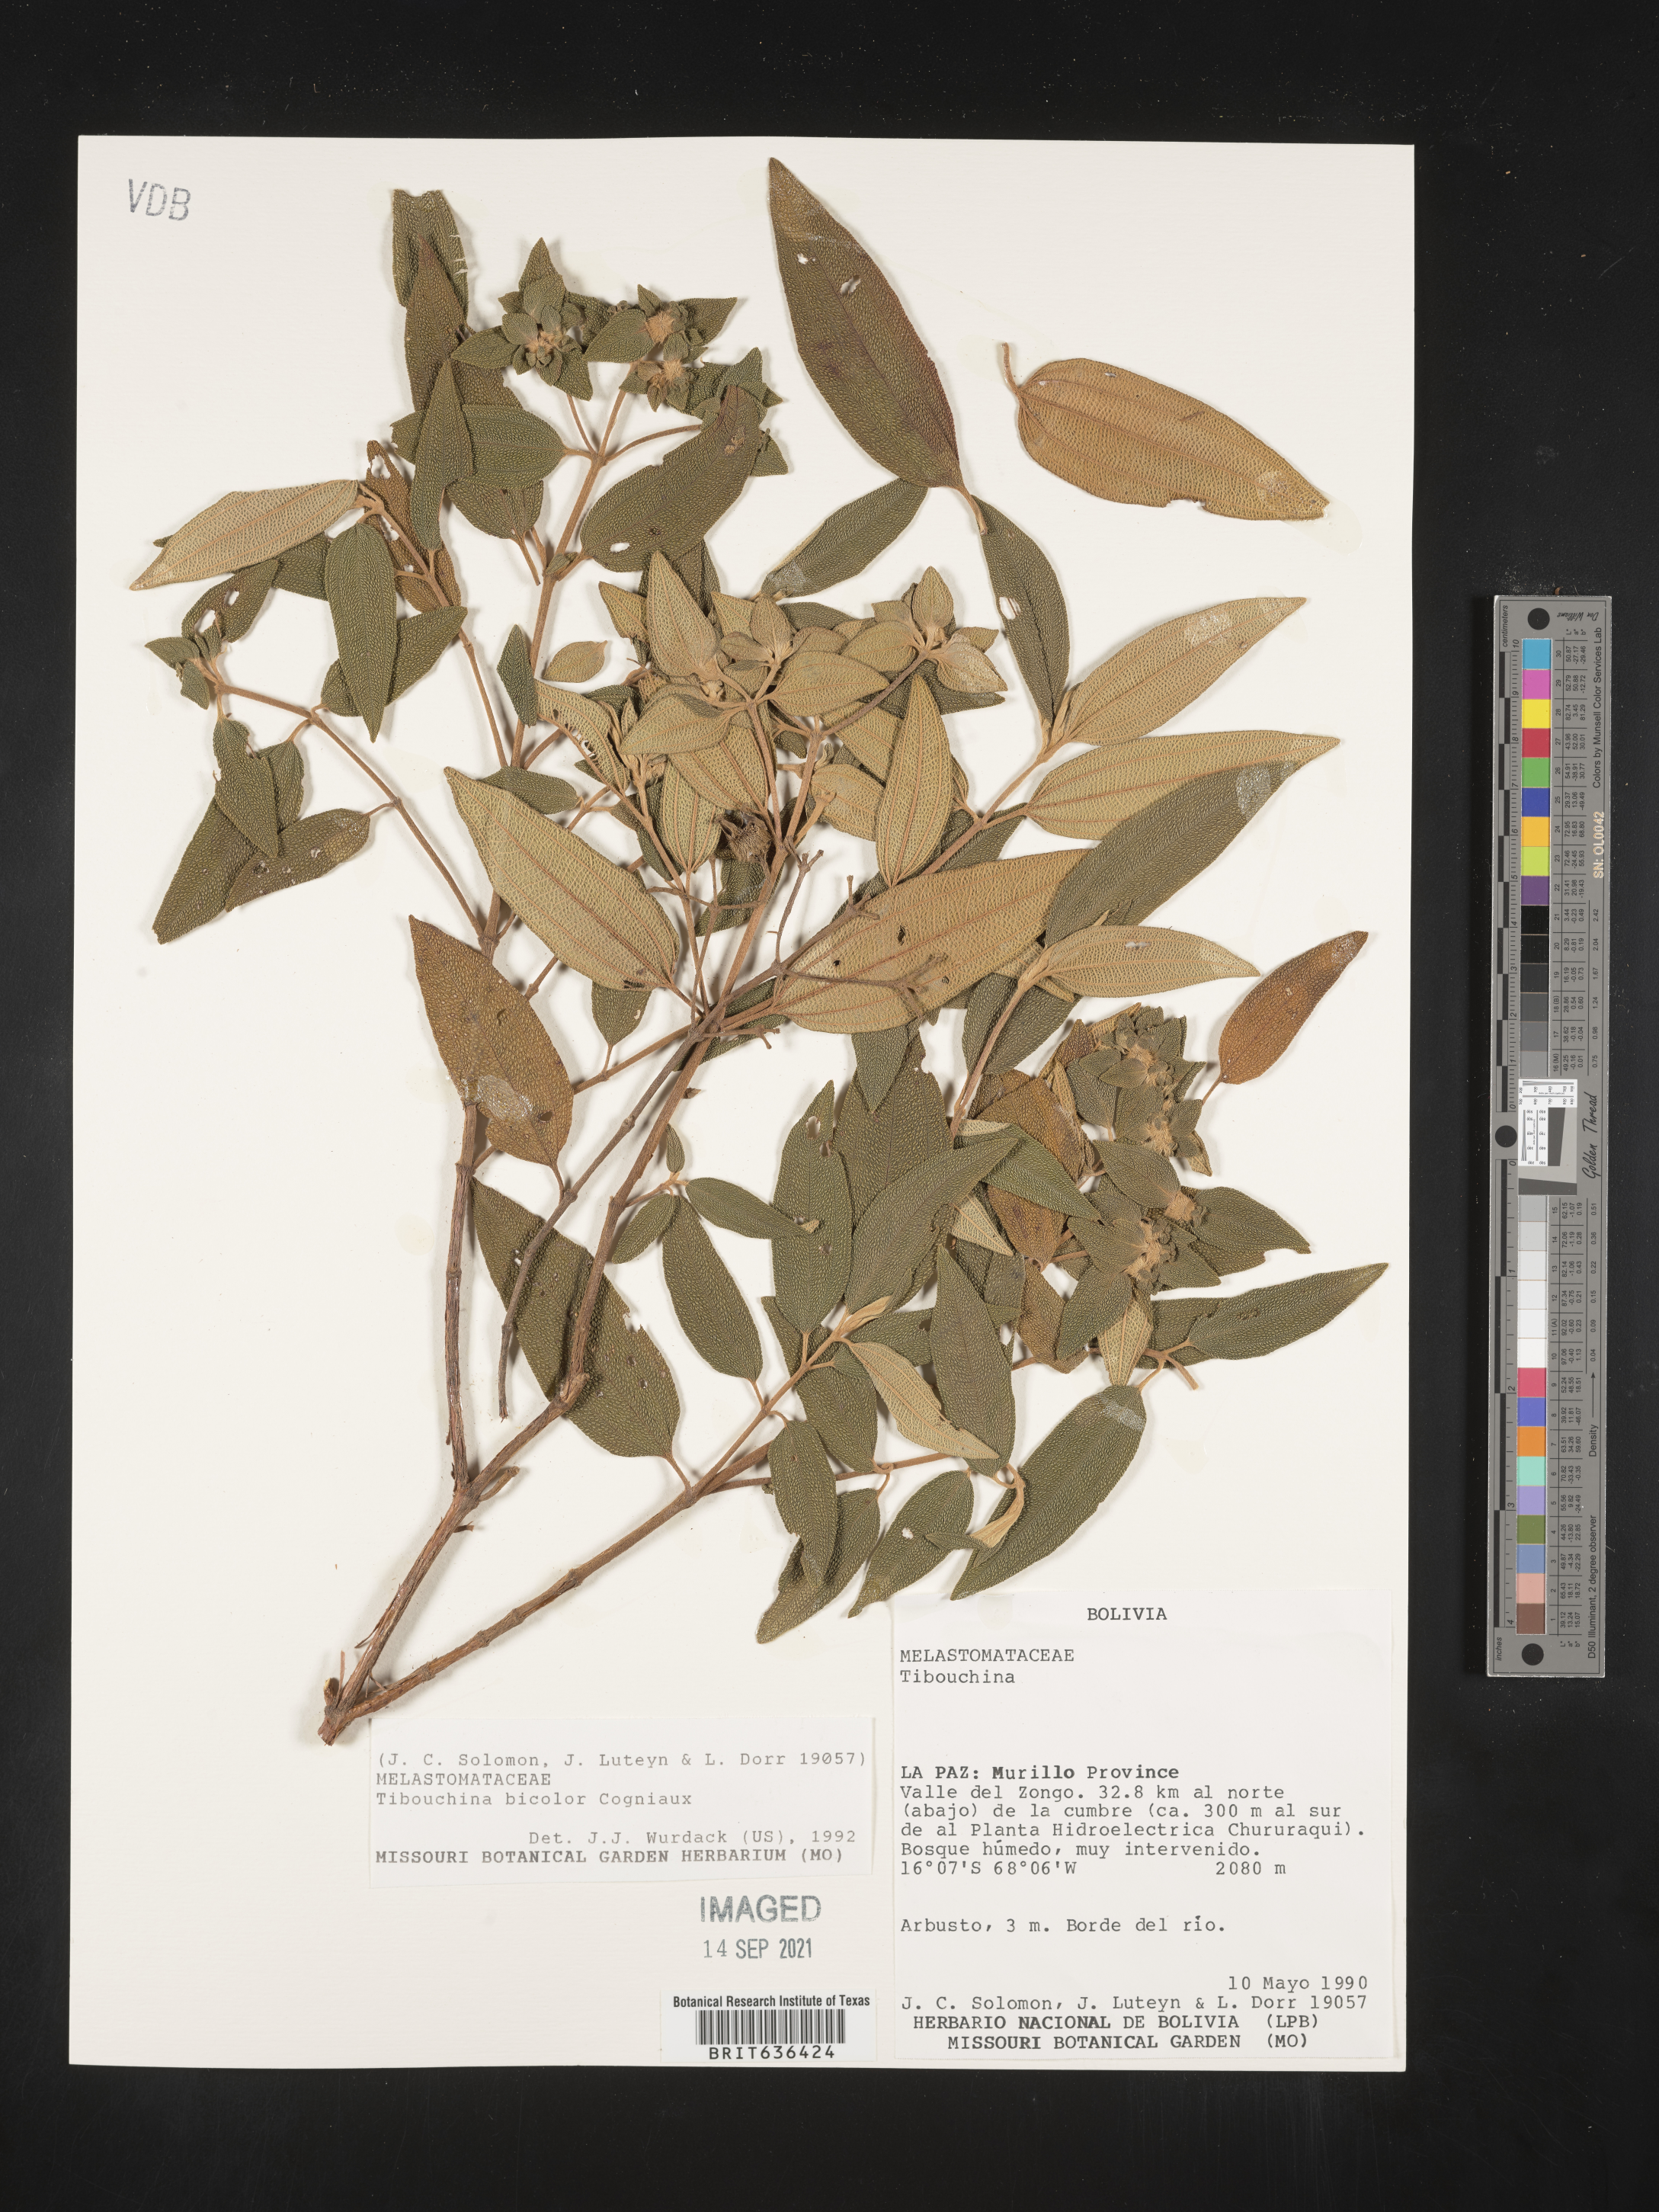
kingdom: Plantae
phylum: Tracheophyta
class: Magnoliopsida
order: Myrtales
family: Melastomataceae
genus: Tibouchina
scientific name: Tibouchina
